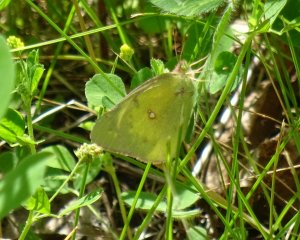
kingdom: Animalia
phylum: Arthropoda
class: Insecta
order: Lepidoptera
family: Pieridae
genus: Colias
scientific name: Colias philodice
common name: Clouded Sulphur
